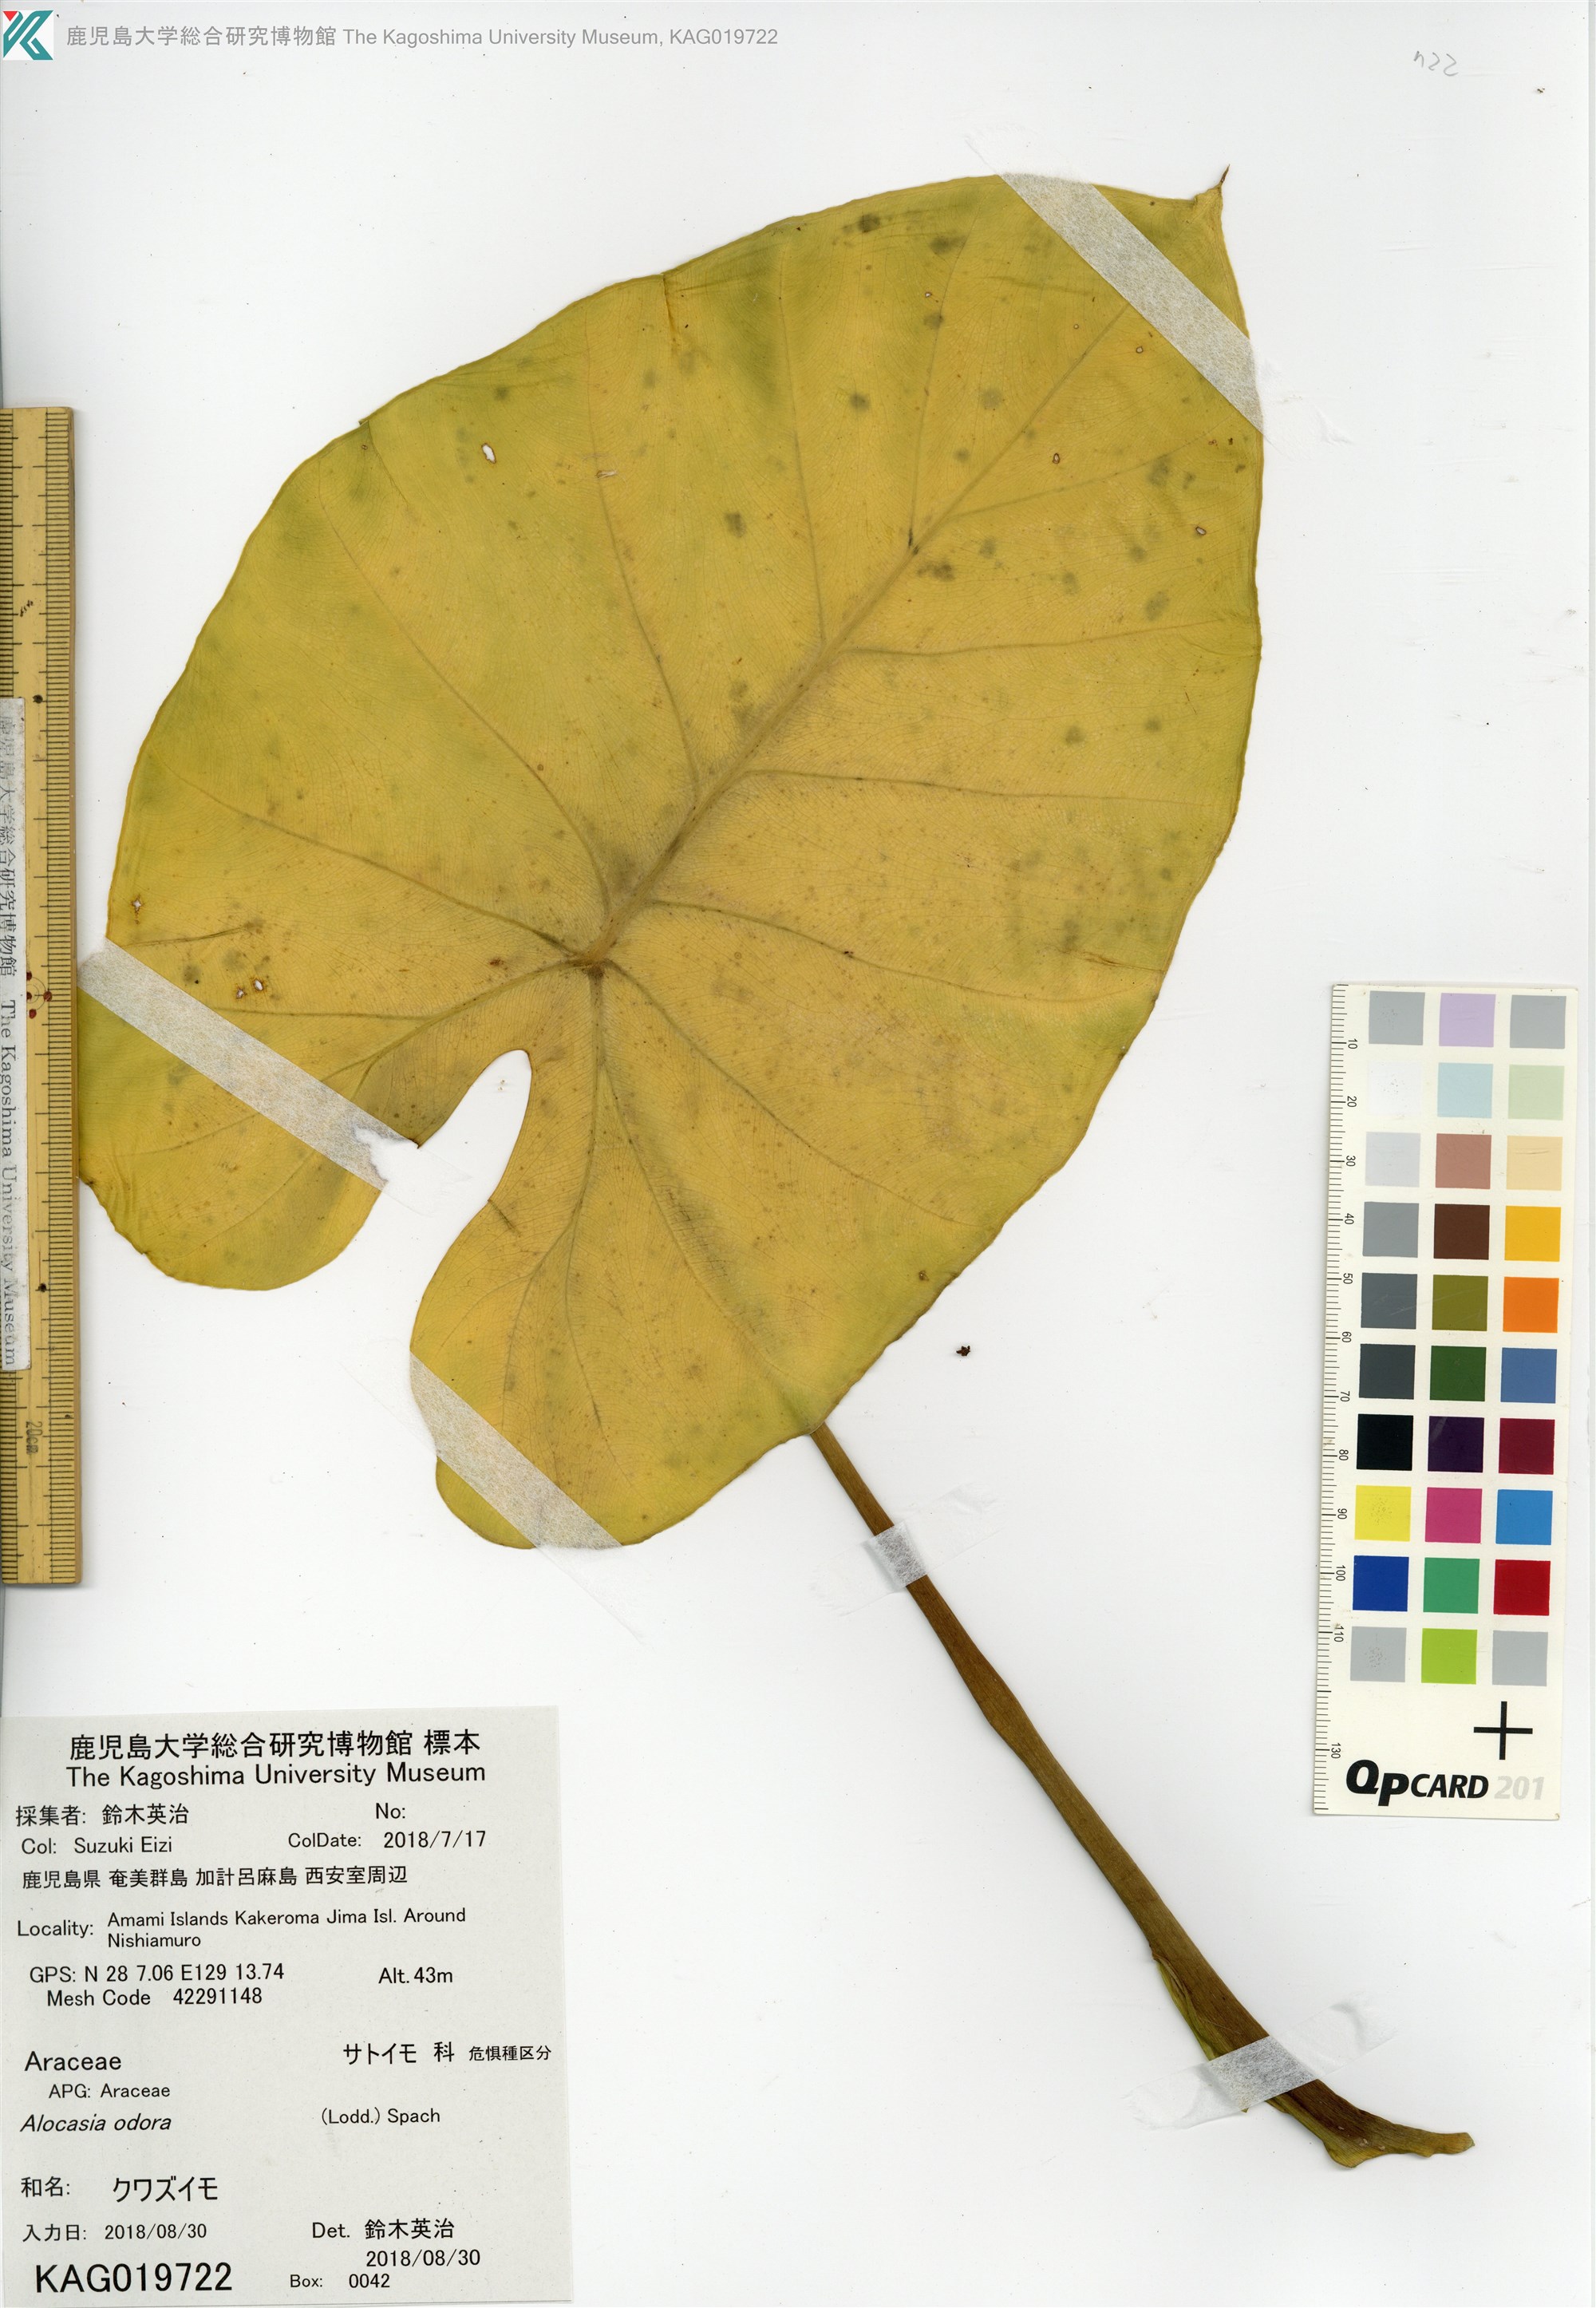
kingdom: Plantae
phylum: Tracheophyta
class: Liliopsida
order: Alismatales
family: Araceae
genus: Alocasia
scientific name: Alocasia odora
